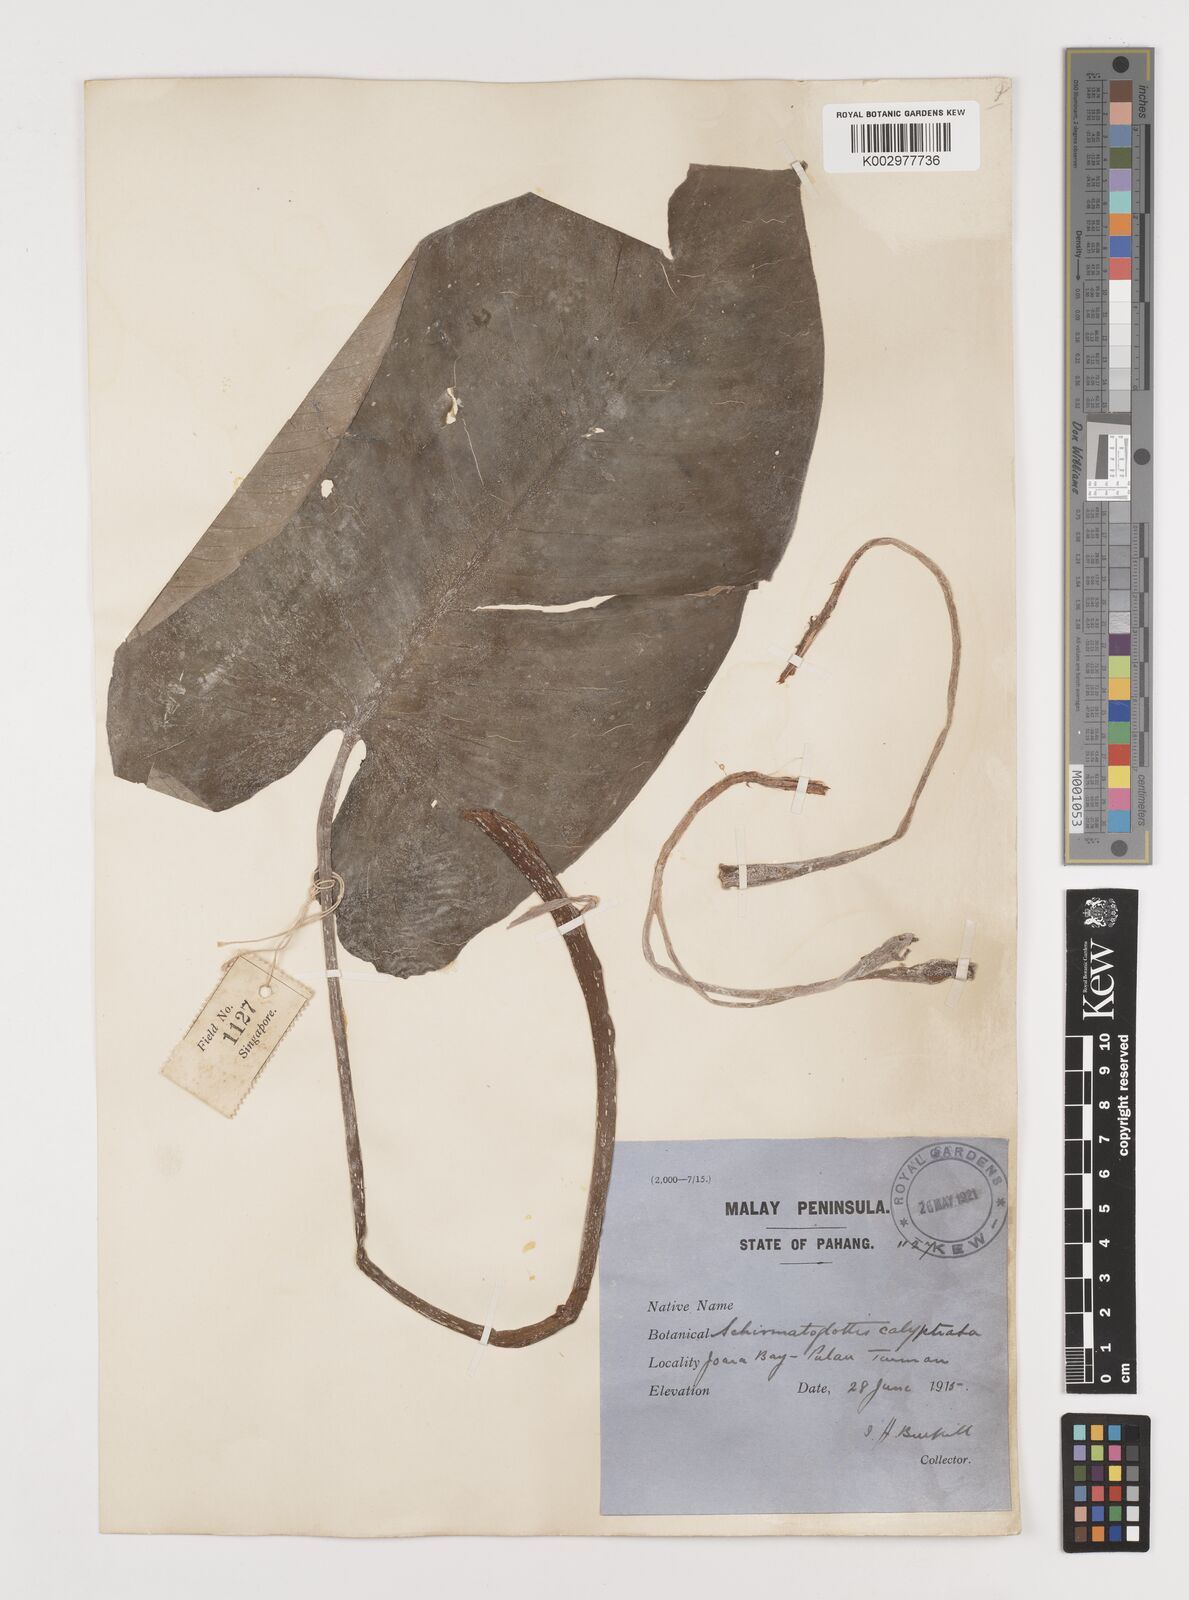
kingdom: Plantae
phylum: Tracheophyta
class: Liliopsida
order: Alismatales
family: Araceae
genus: Schismatoglottis
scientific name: Schismatoglottis calyptrata
